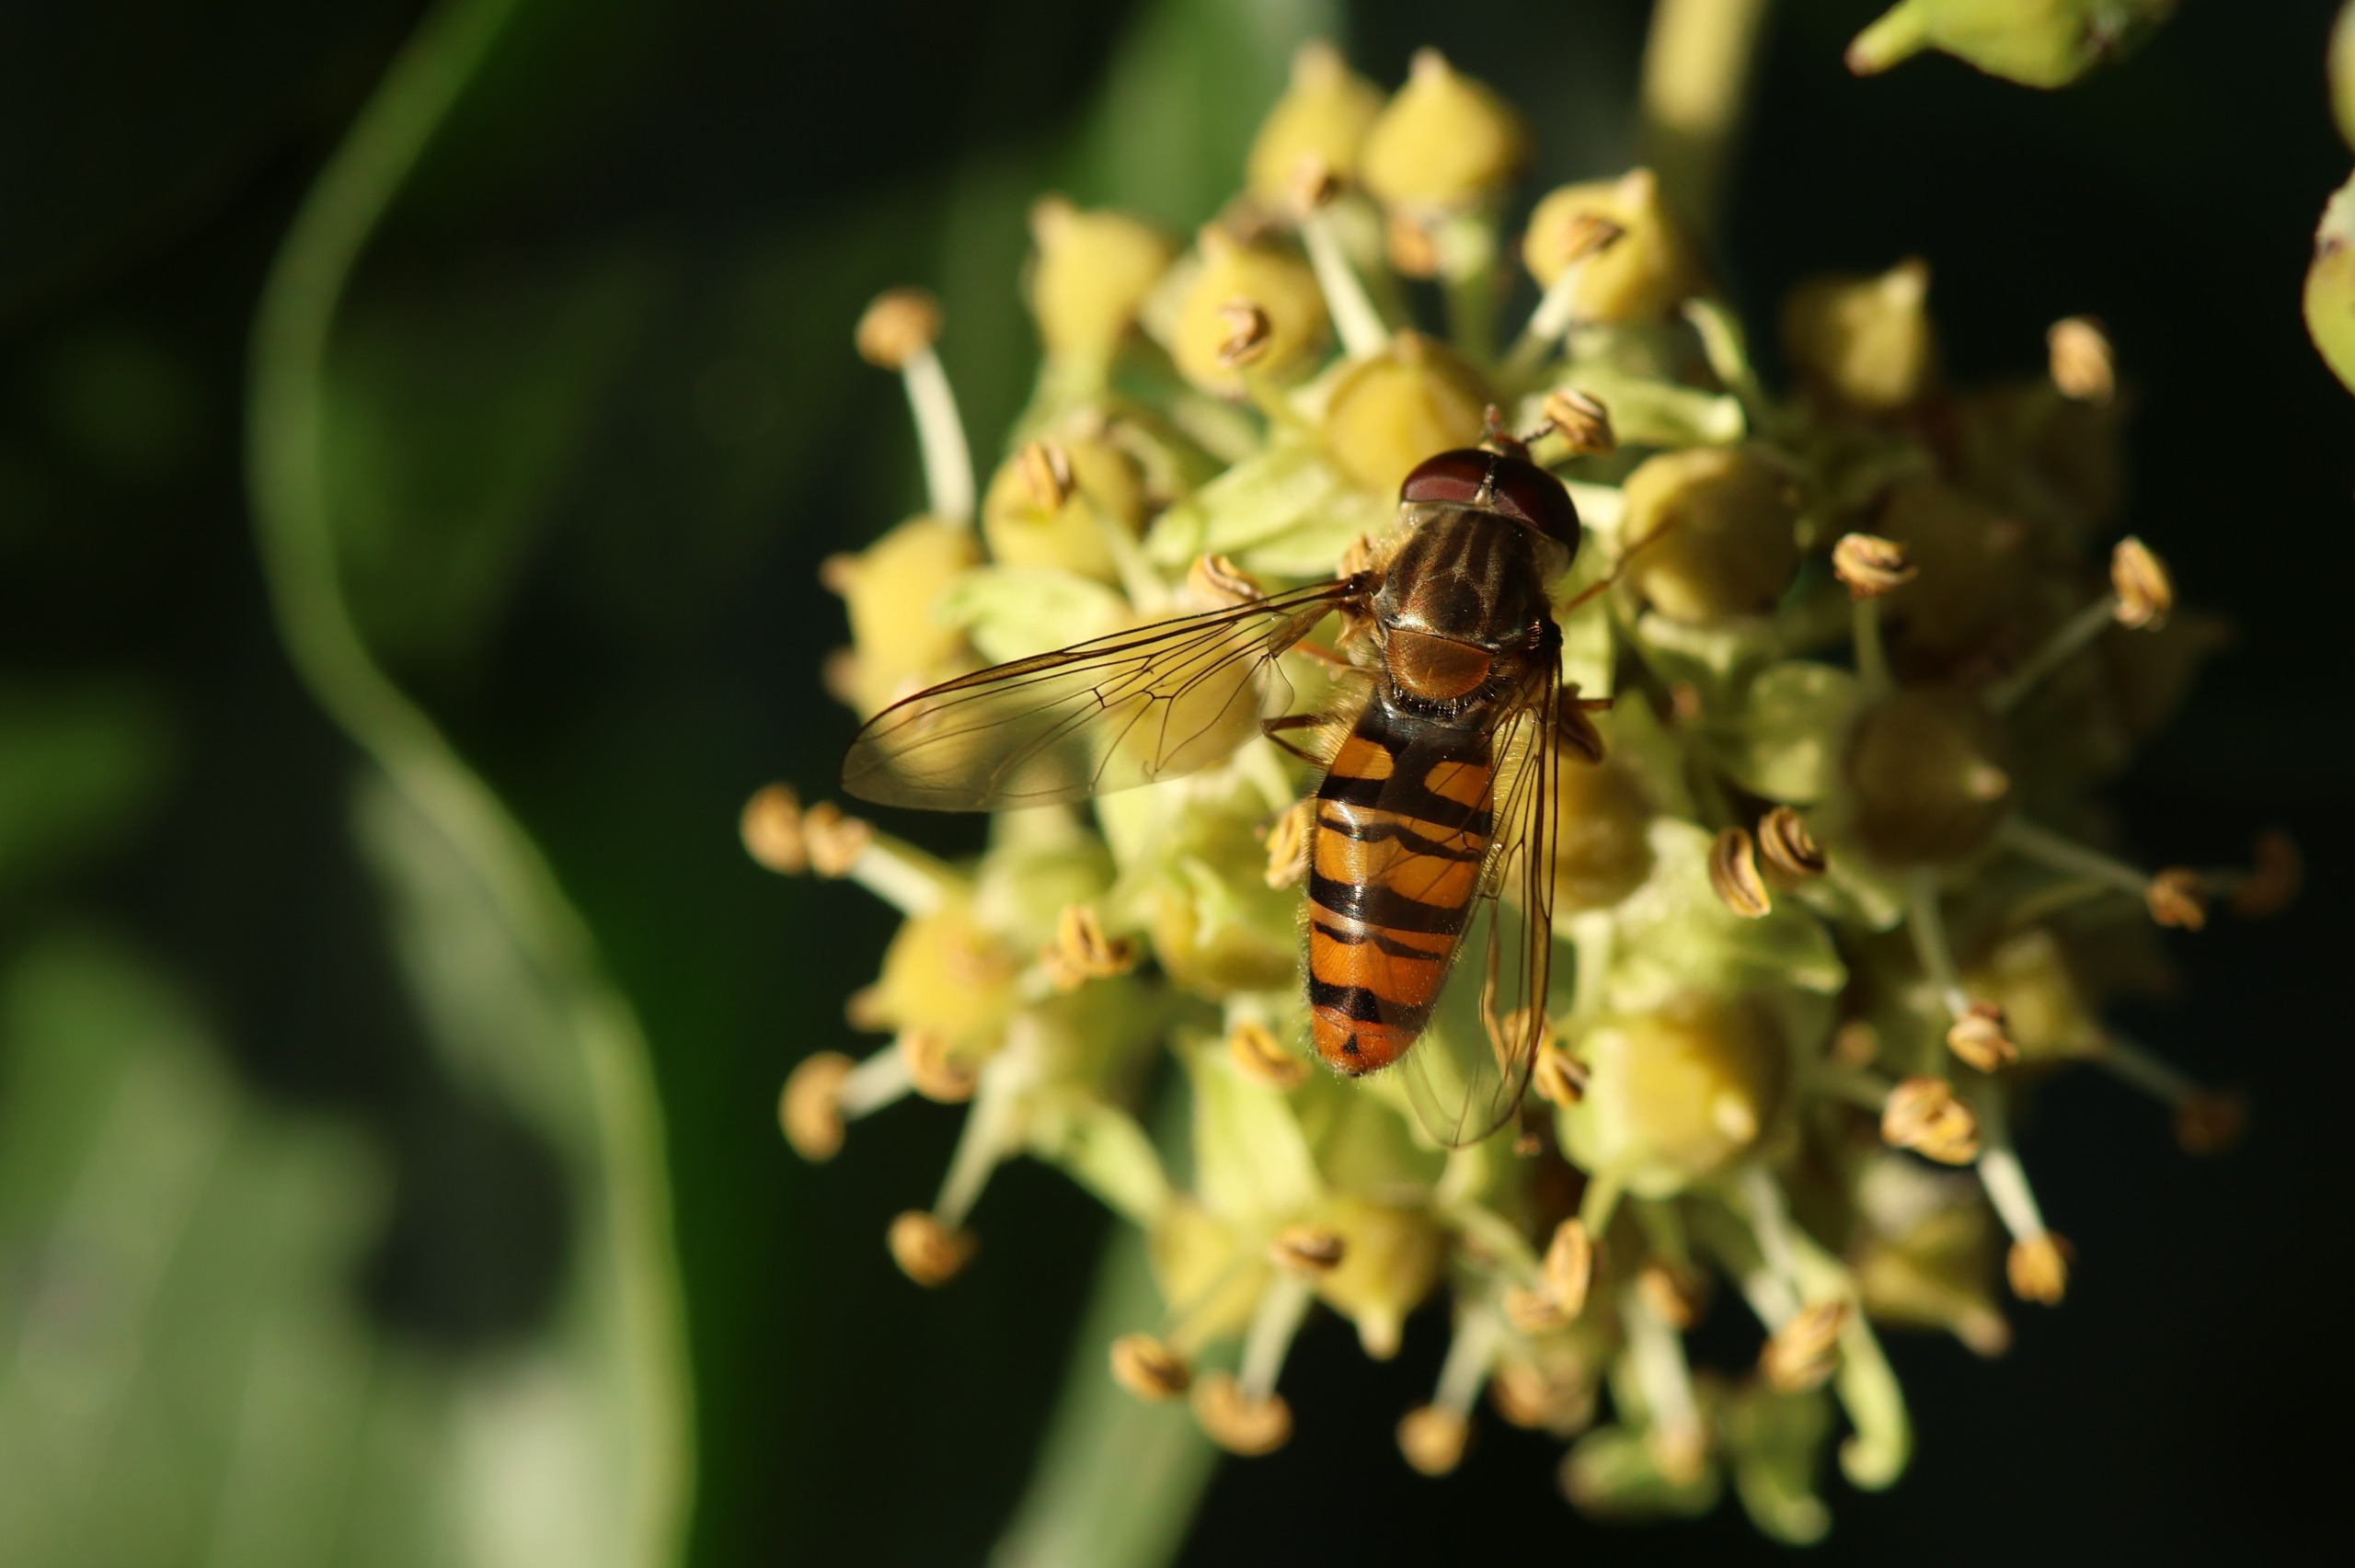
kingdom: Animalia
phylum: Arthropoda
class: Insecta
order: Diptera
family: Syrphidae
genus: Episyrphus
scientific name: Episyrphus balteatus
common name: Dobbeltbåndet svirreflue
